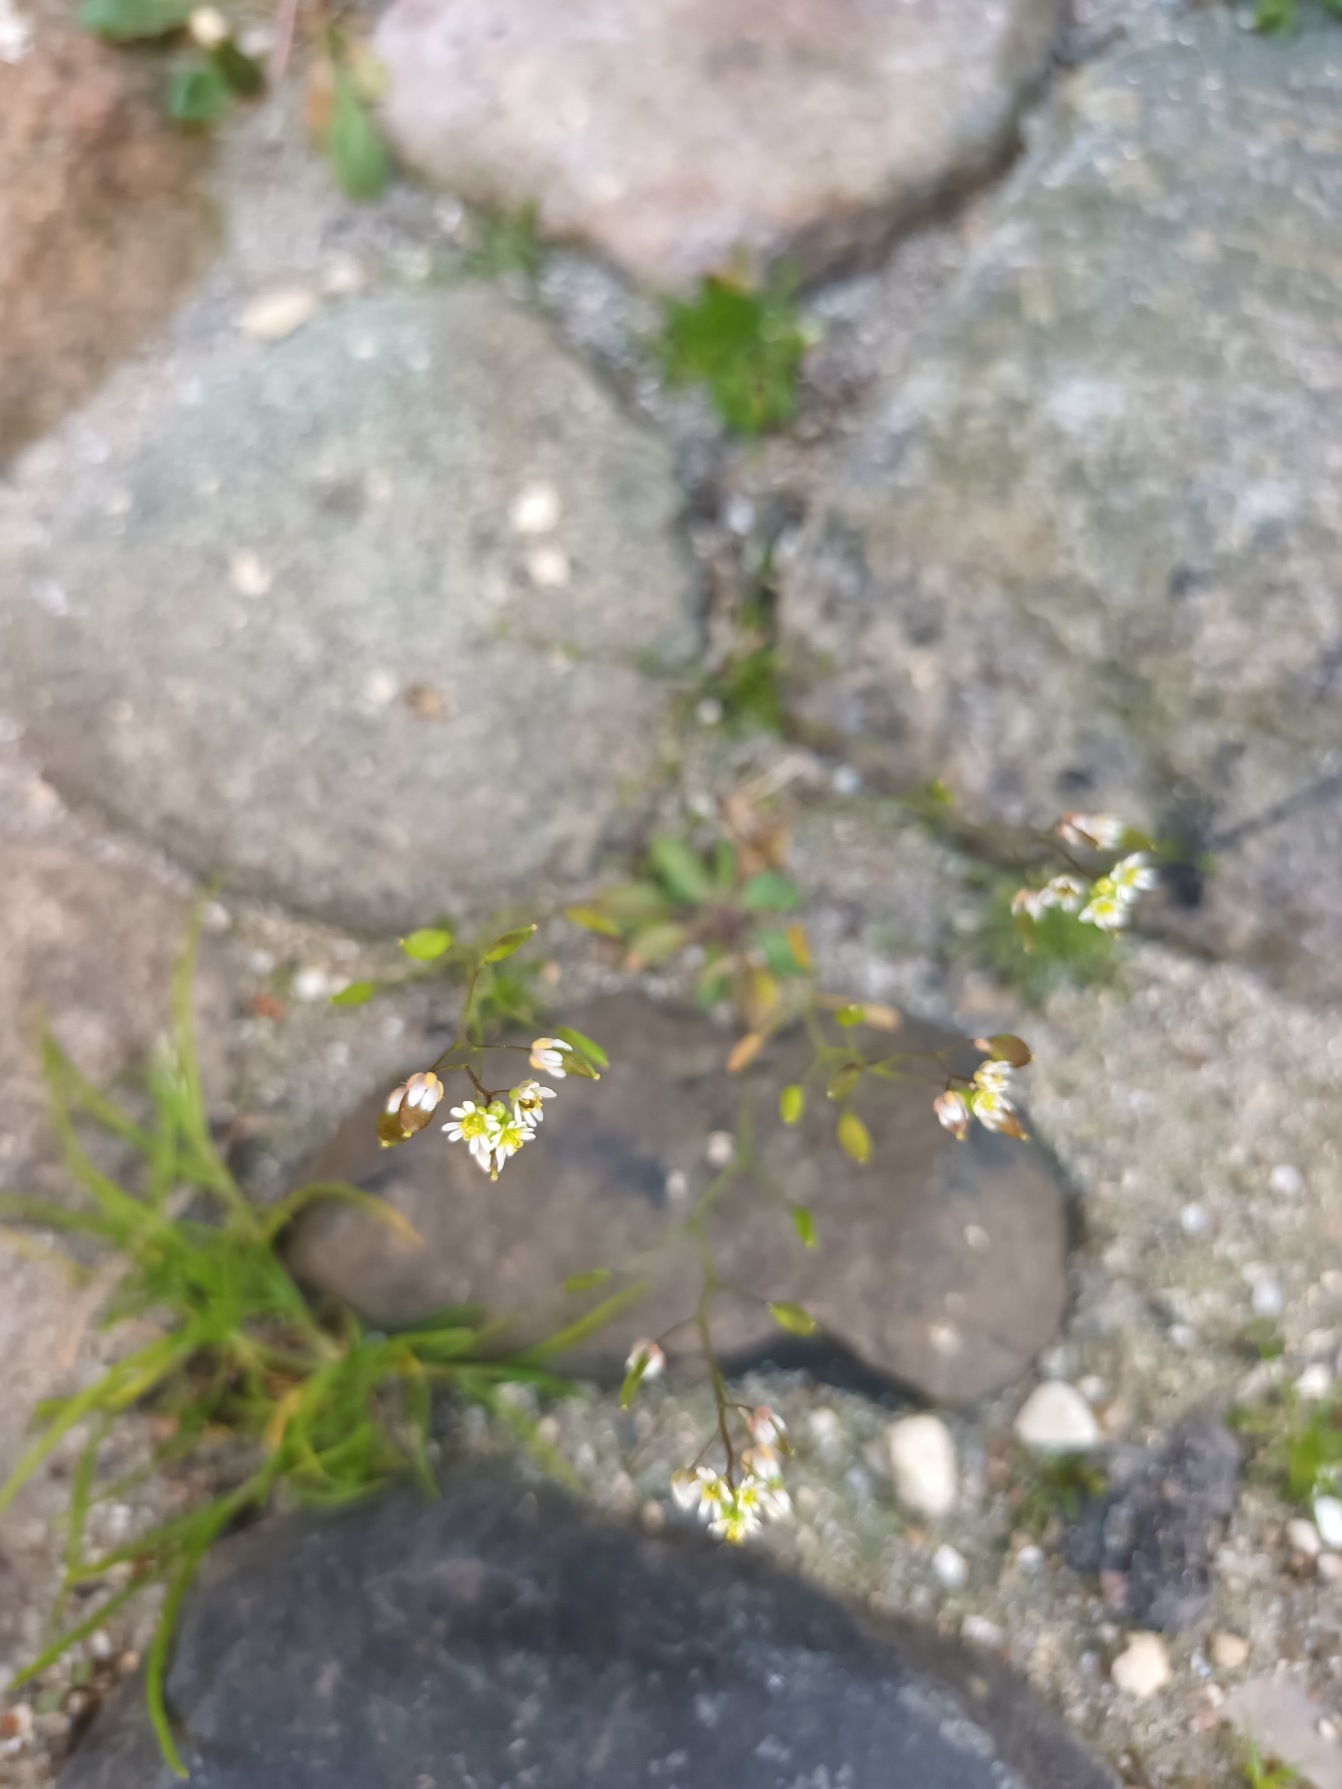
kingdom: Plantae
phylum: Tracheophyta
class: Magnoliopsida
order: Brassicales
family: Brassicaceae
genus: Draba
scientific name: Draba verna
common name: Vår-gæslingeblomst
